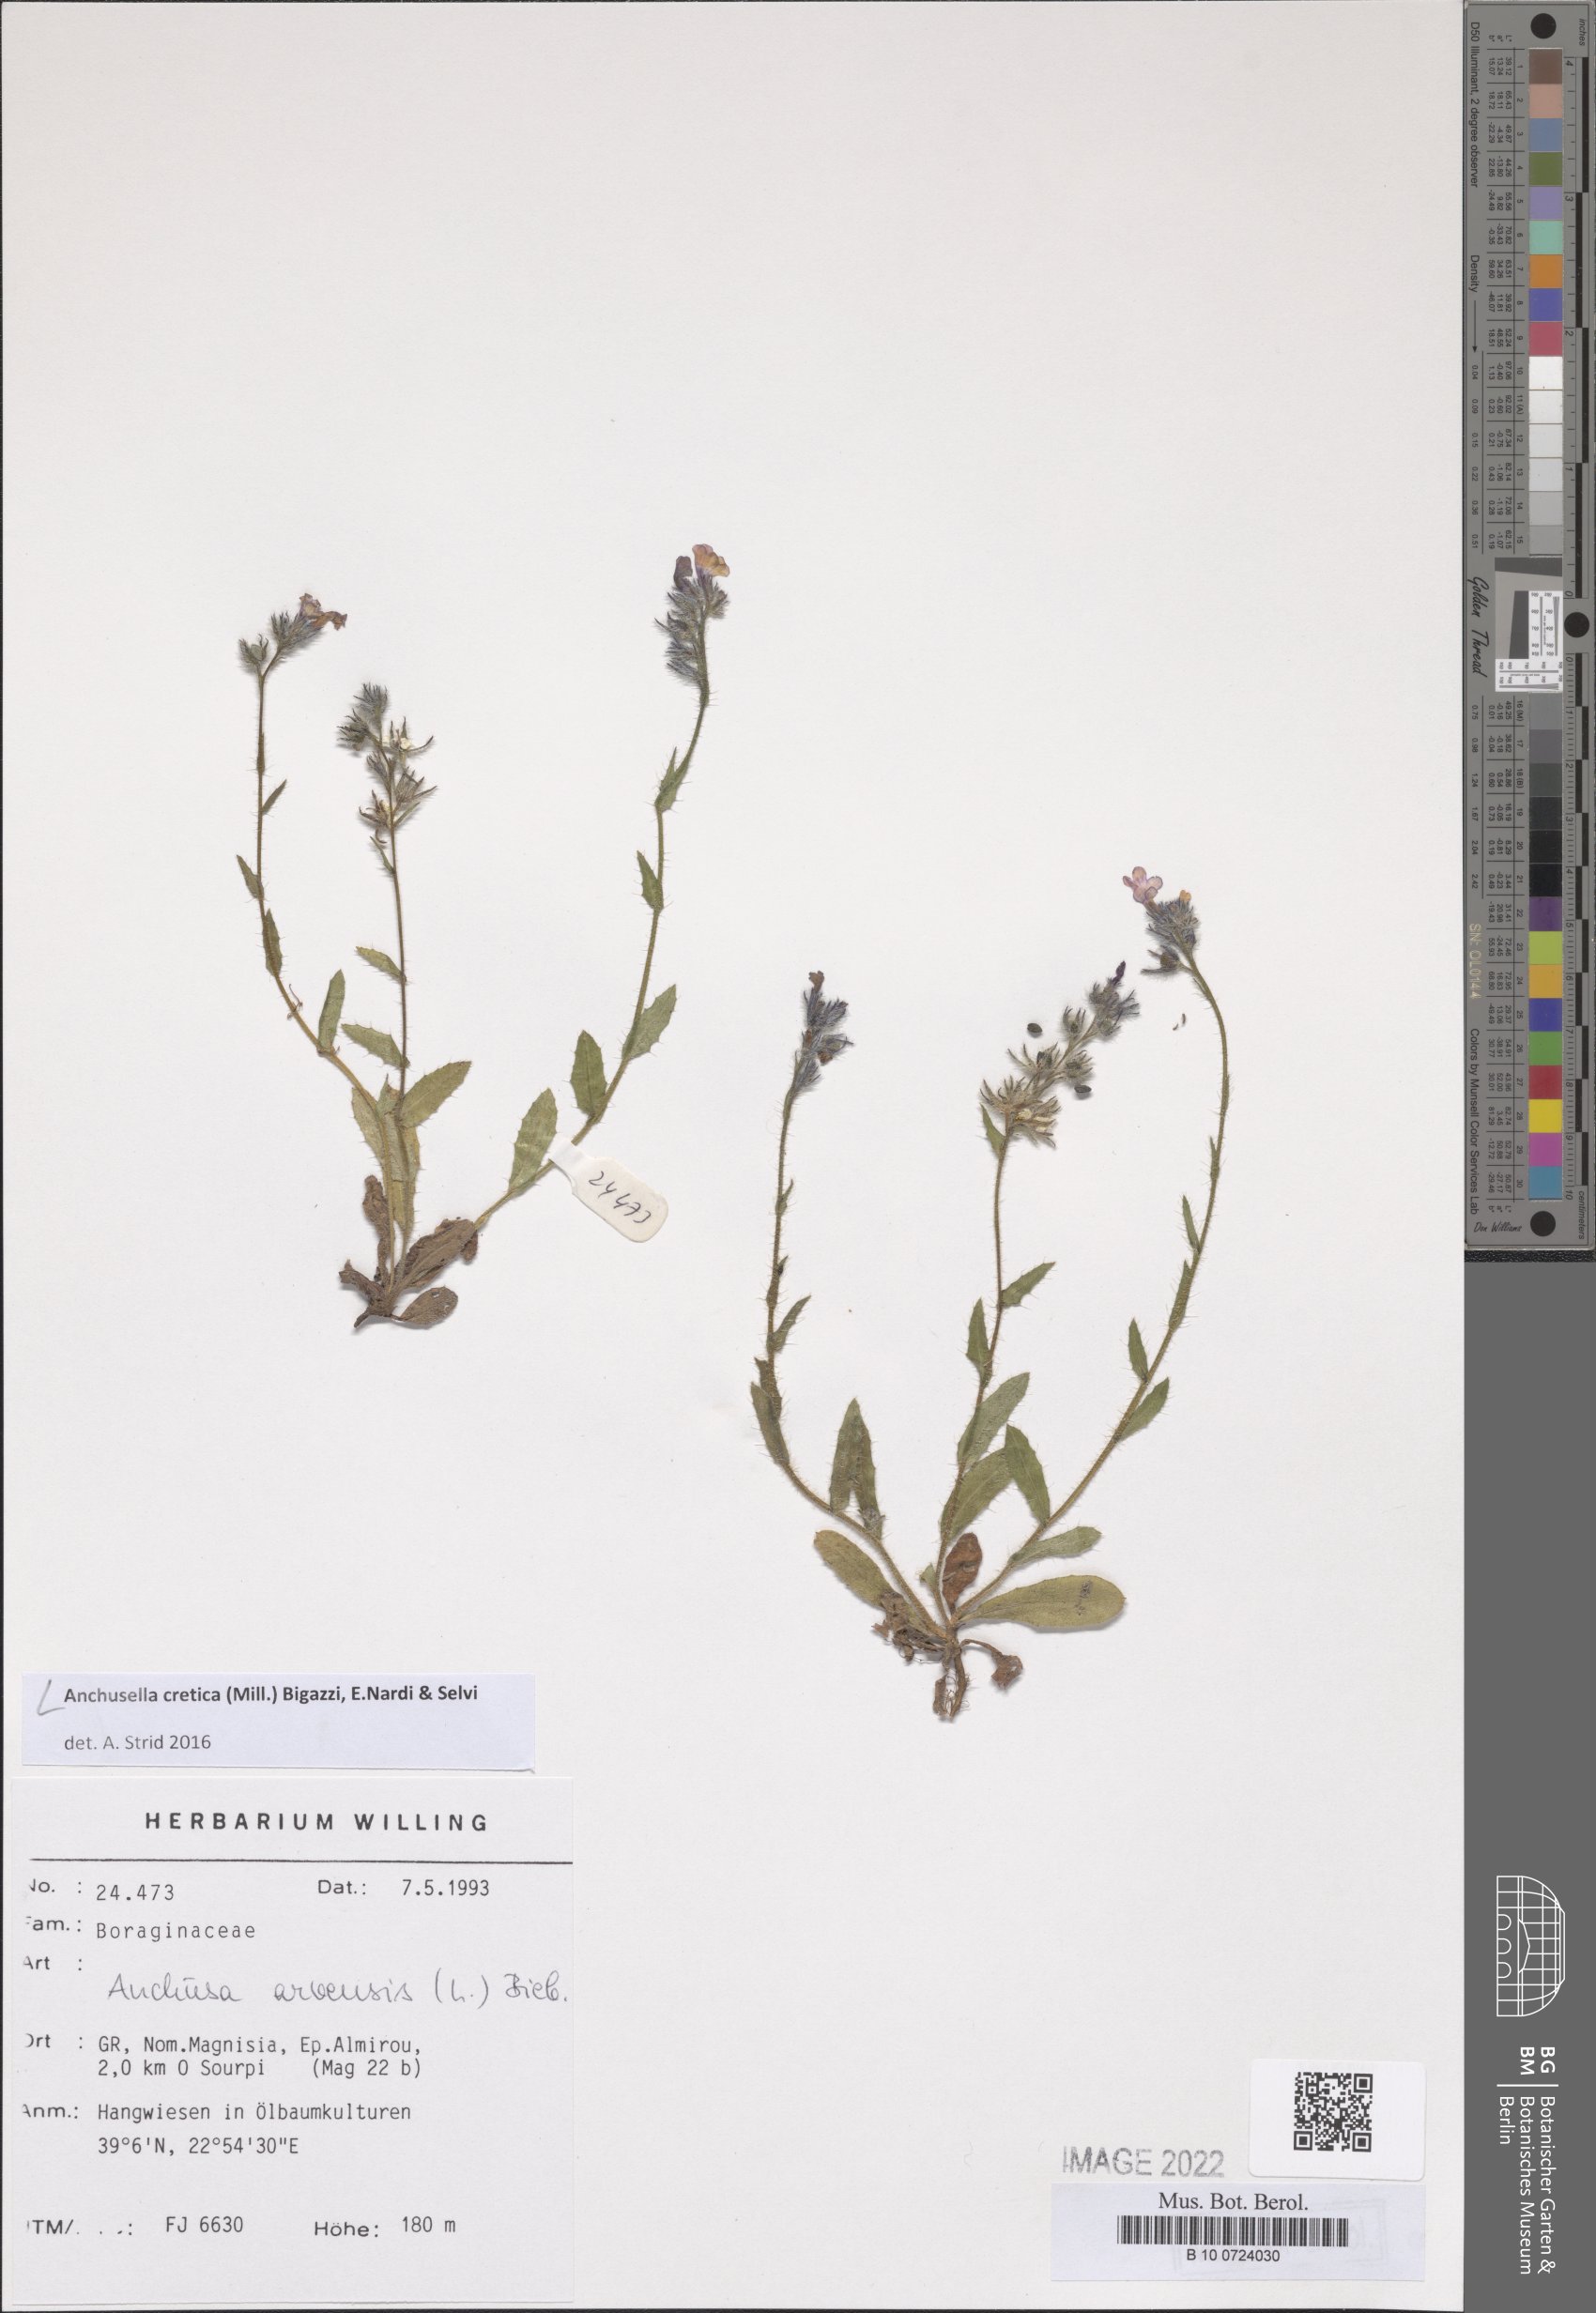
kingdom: Plantae
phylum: Tracheophyta
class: Magnoliopsida
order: Boraginales
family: Boraginaceae
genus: Anchusella
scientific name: Anchusella cretica
